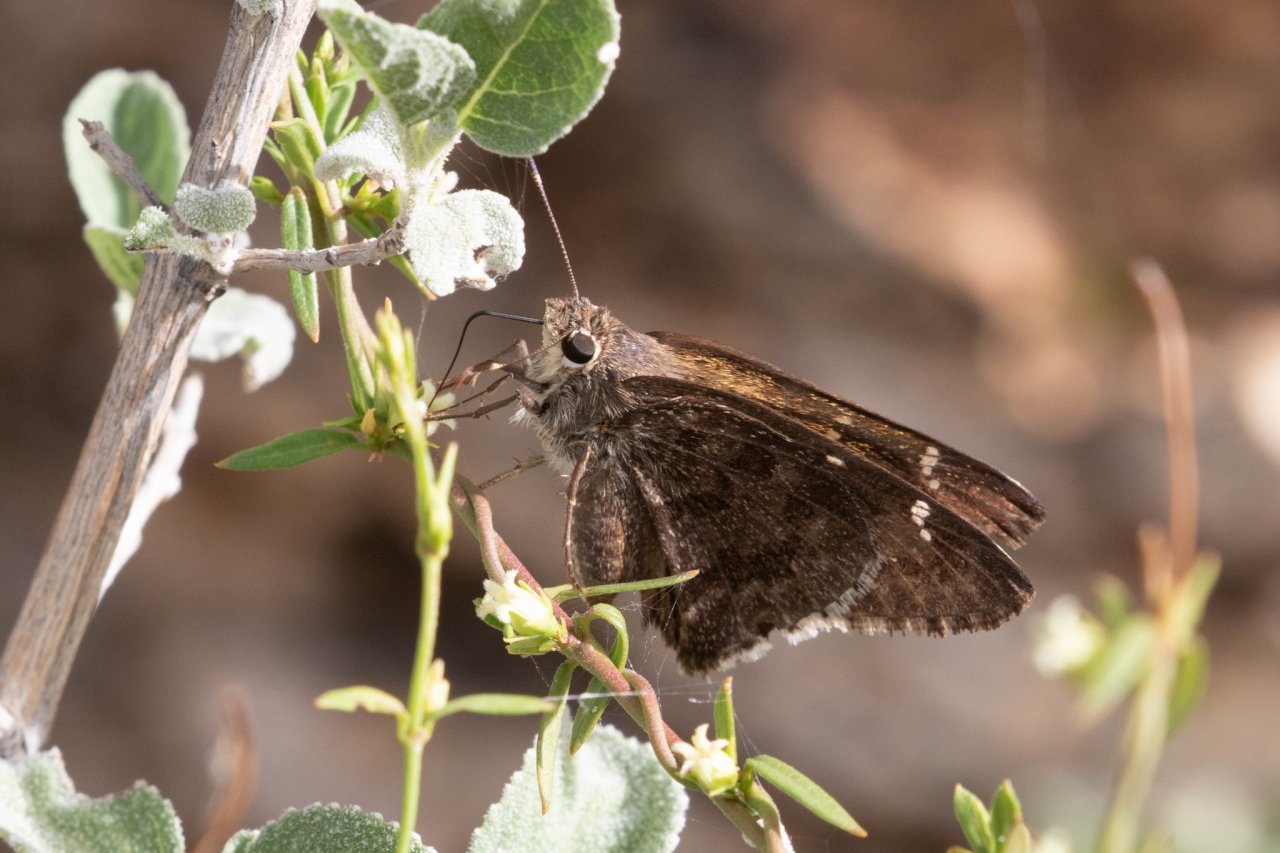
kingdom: Animalia
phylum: Arthropoda
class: Insecta
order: Lepidoptera
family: Hesperiidae
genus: Cogia
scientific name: Cogia hippalus
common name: Acacia Skipper
